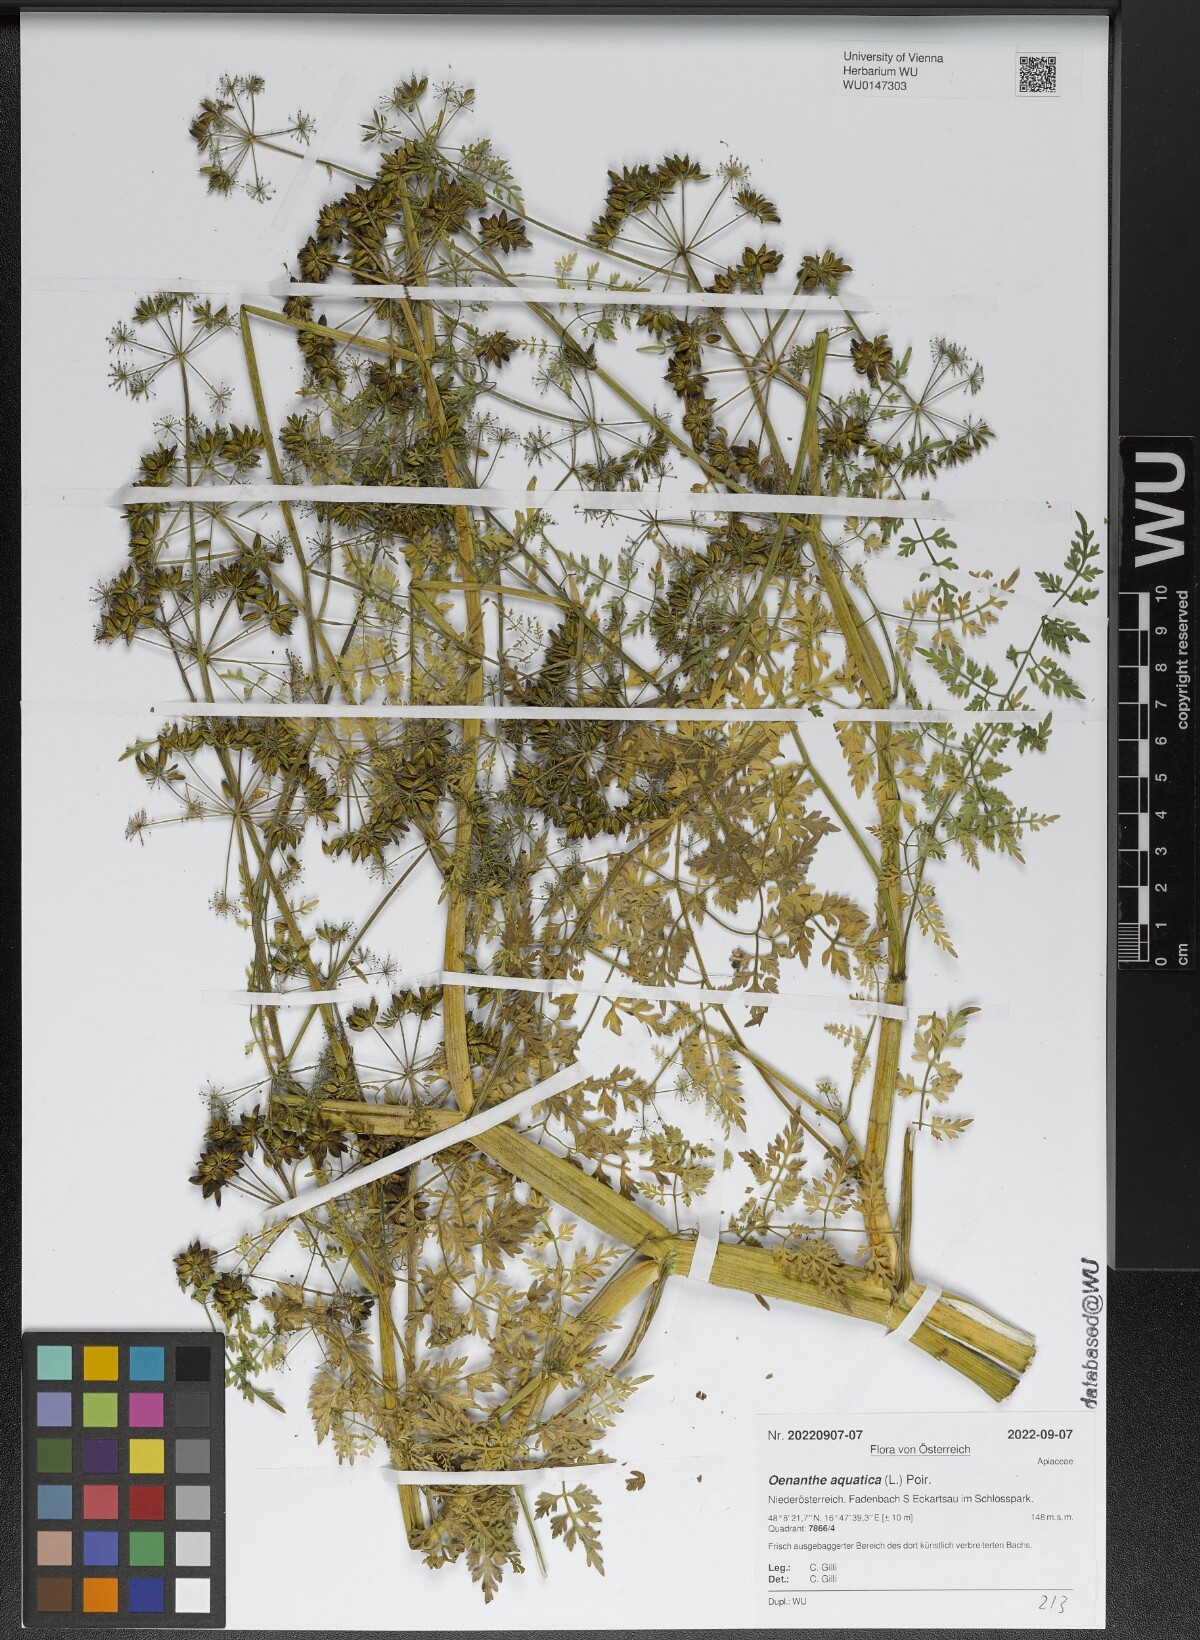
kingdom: Plantae
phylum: Tracheophyta
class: Magnoliopsida
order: Apiales
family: Apiaceae
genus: Oenanthe
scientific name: Oenanthe aquatica
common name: Fine-leaved water-dropwort
